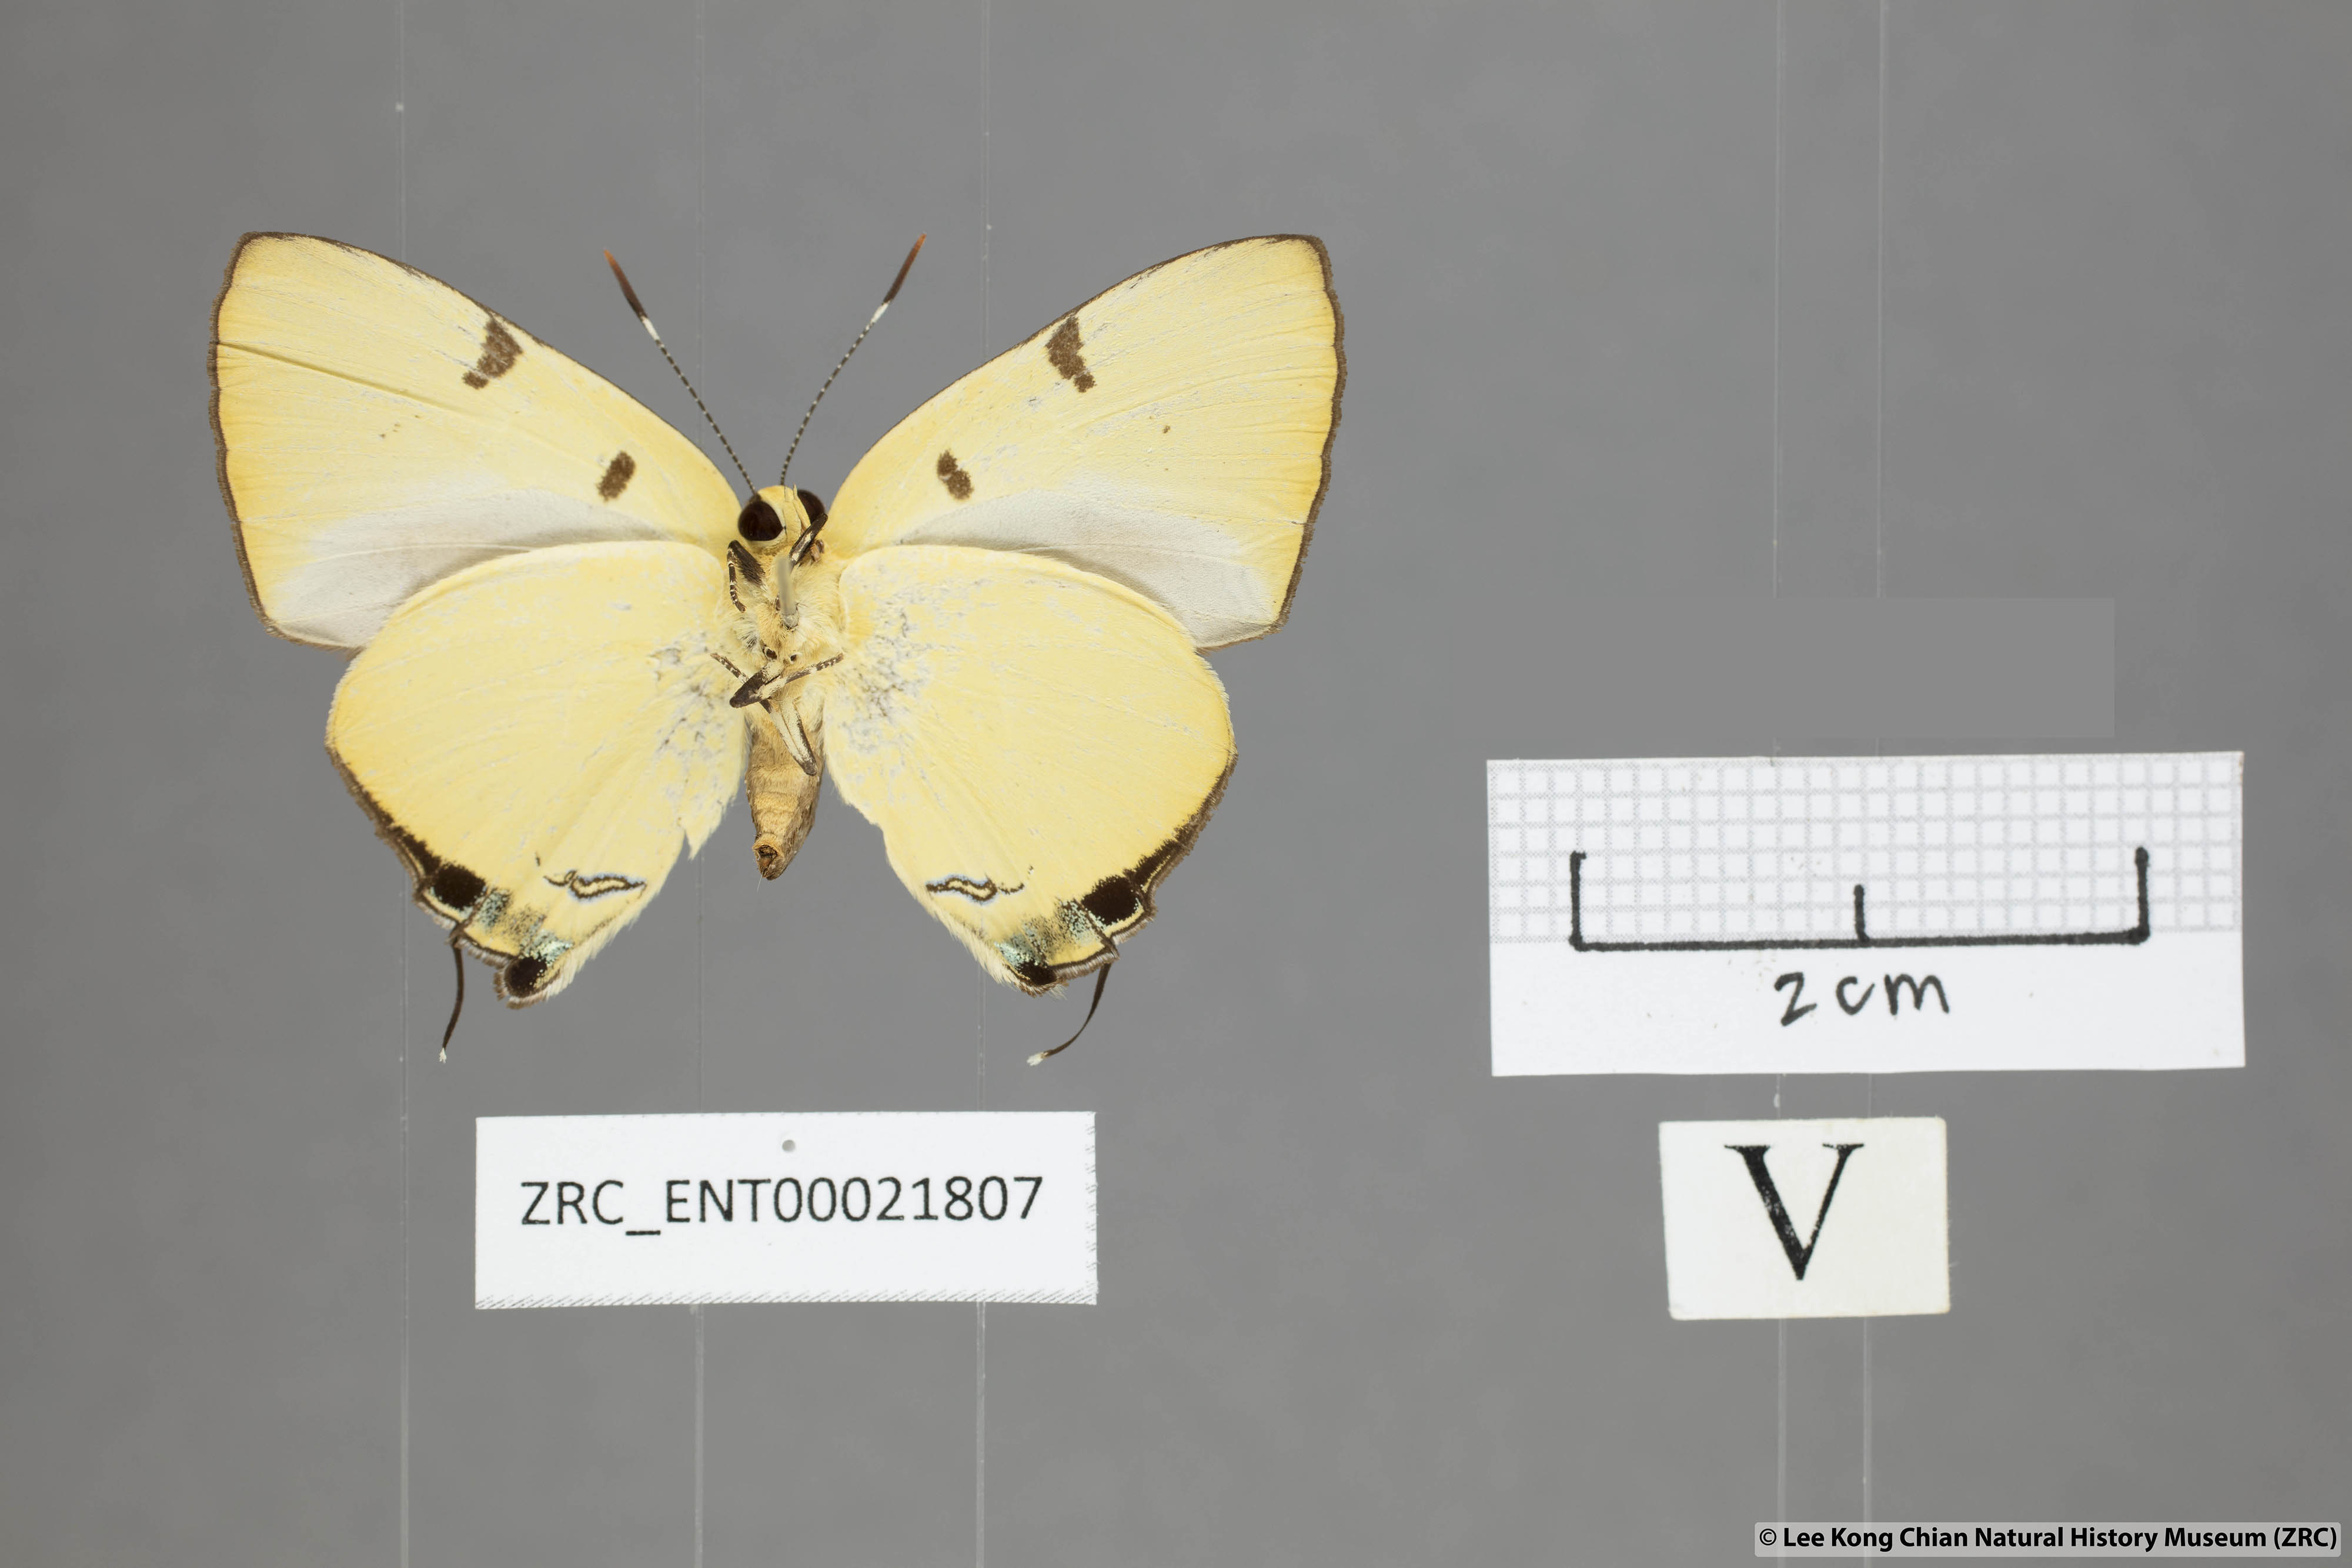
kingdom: Animalia
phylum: Arthropoda
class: Insecta
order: Lepidoptera
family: Lycaenidae
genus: Rapala
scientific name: Rapala domitia
